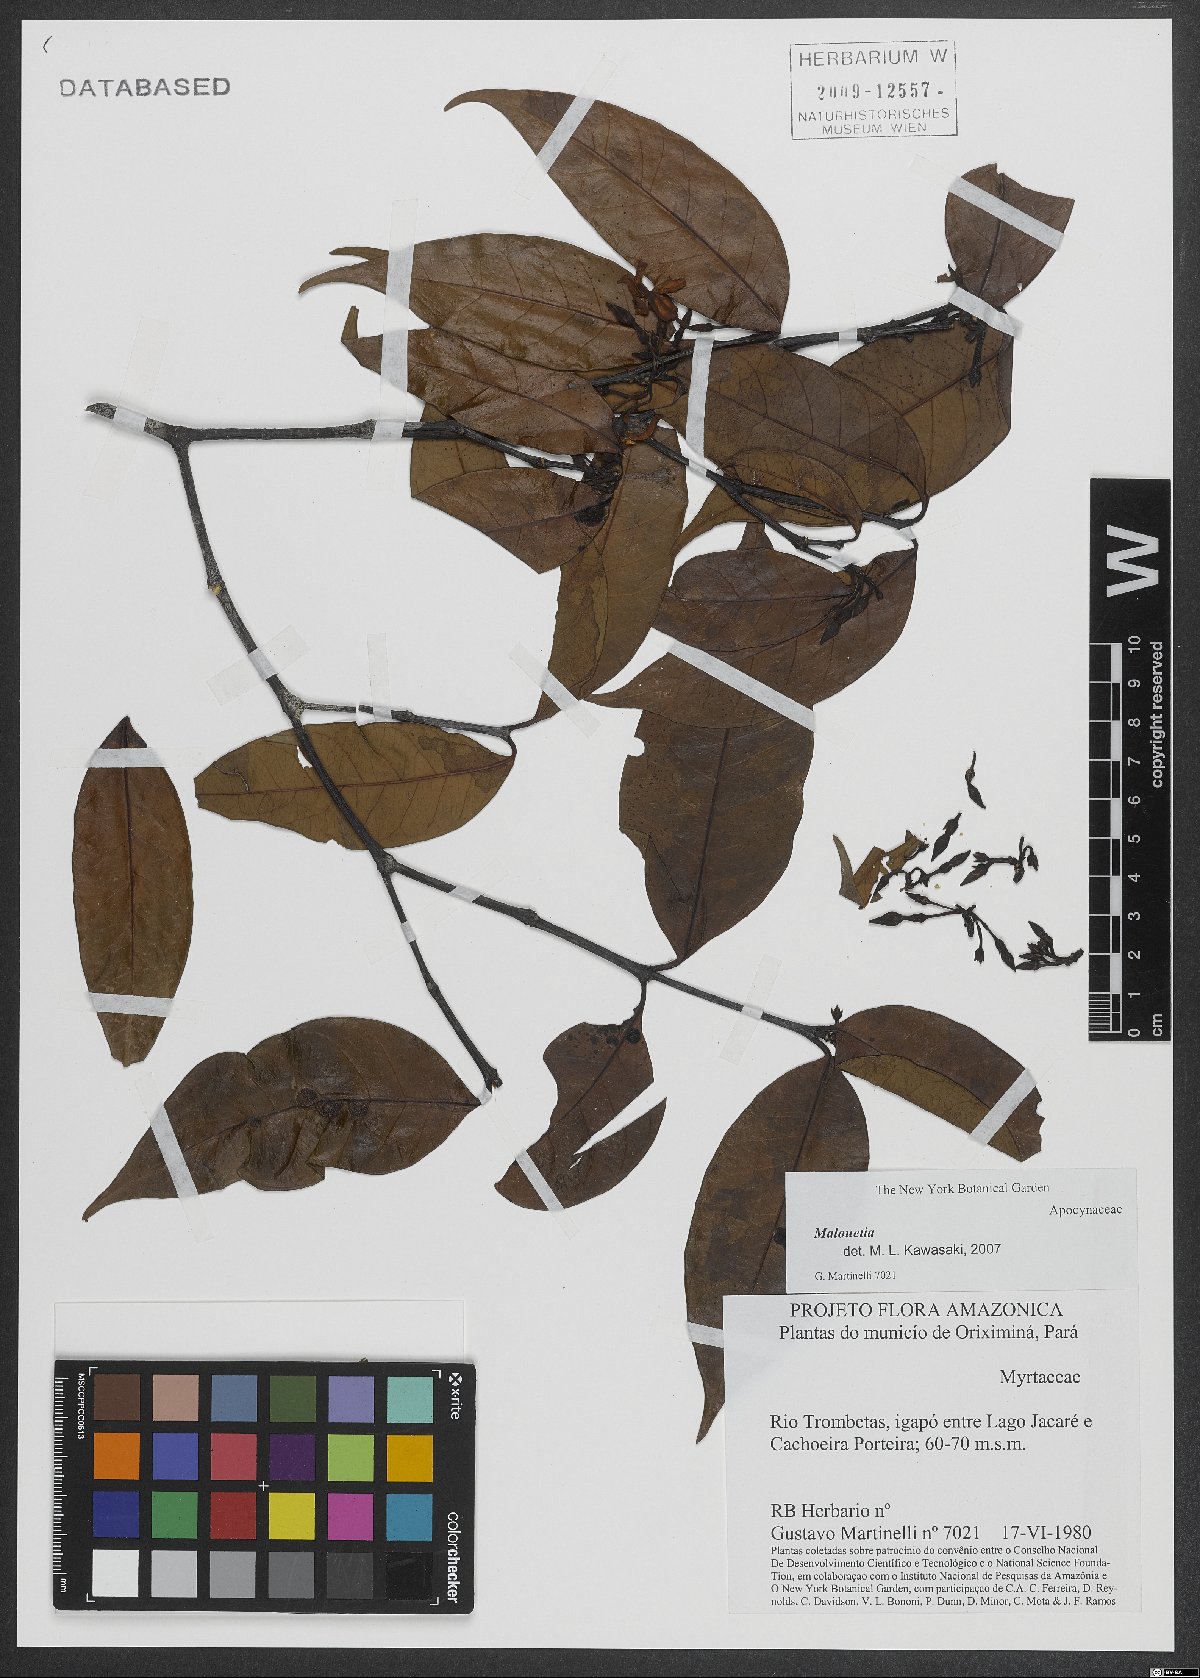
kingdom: Plantae
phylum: Tracheophyta
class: Magnoliopsida
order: Gentianales
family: Apocynaceae
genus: Malouetia
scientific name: Malouetia
